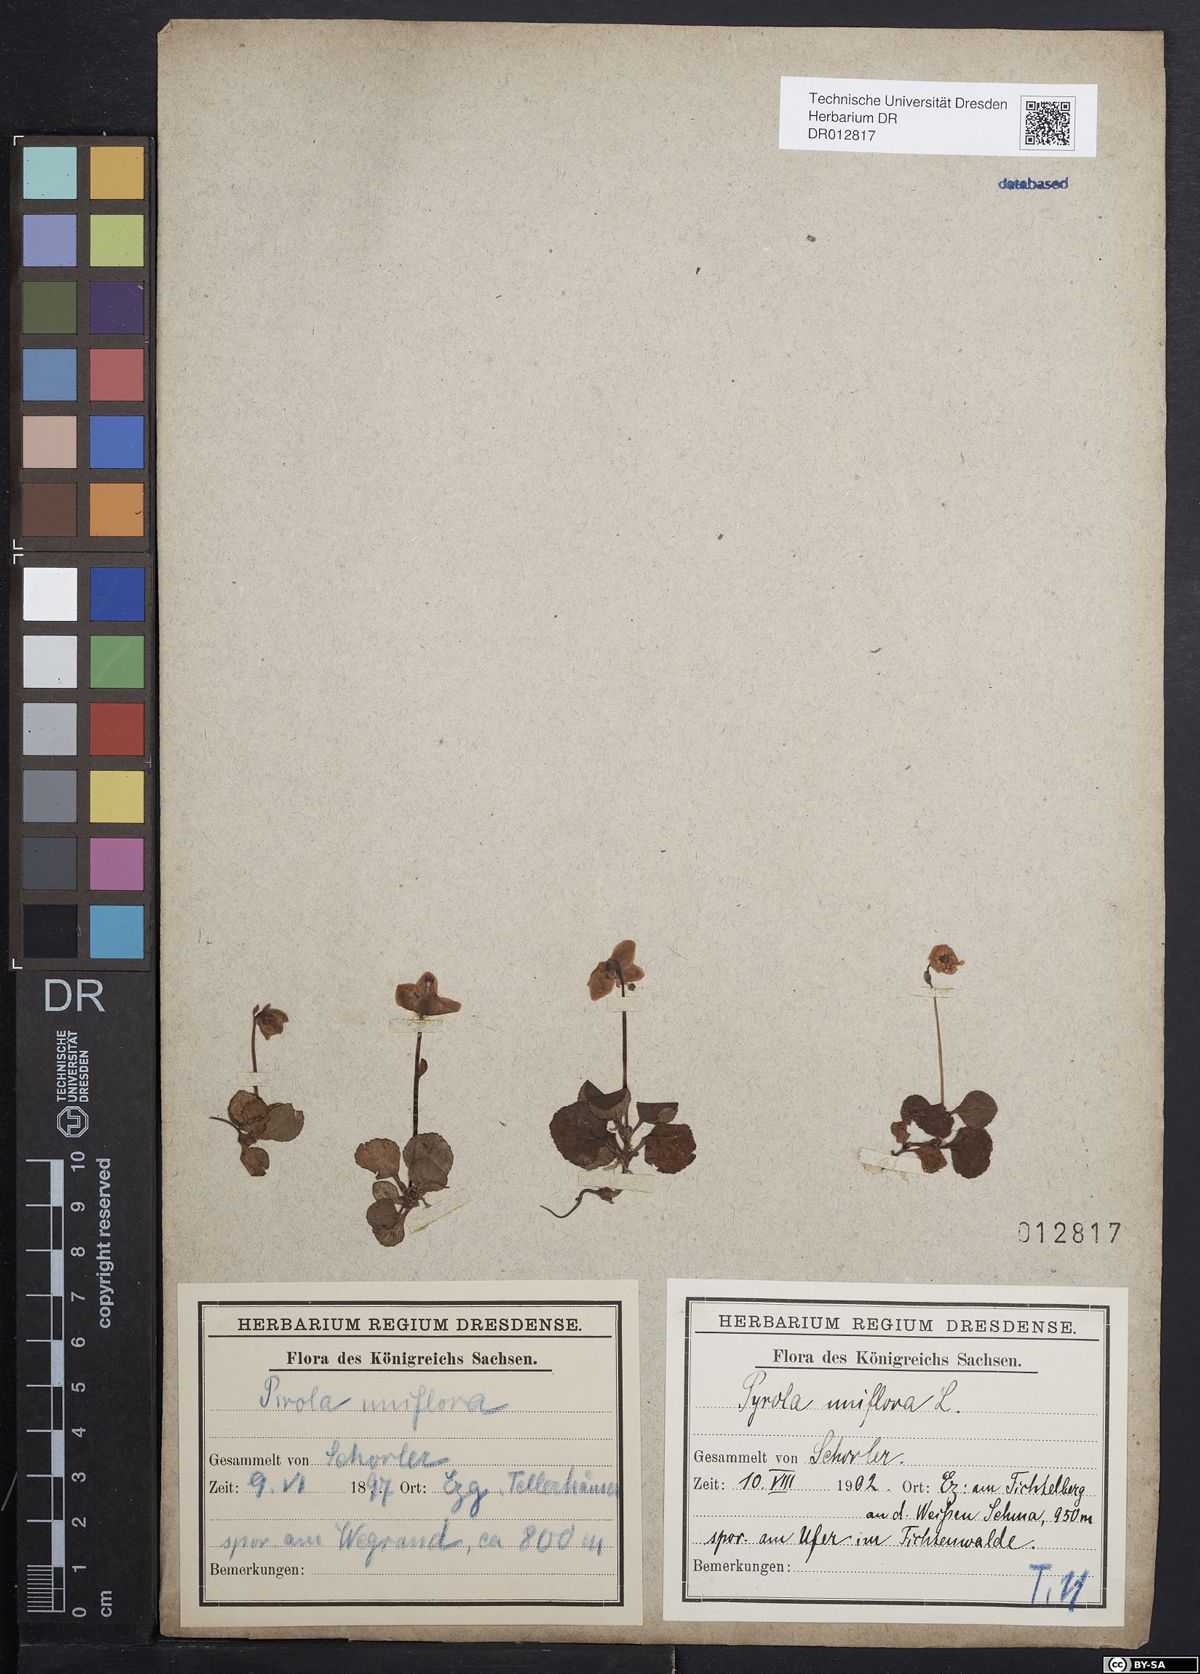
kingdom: Plantae
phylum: Tracheophyta
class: Magnoliopsida
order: Ericales
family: Ericaceae
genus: Moneses
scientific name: Moneses uniflora
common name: One-flowered wintergreen
